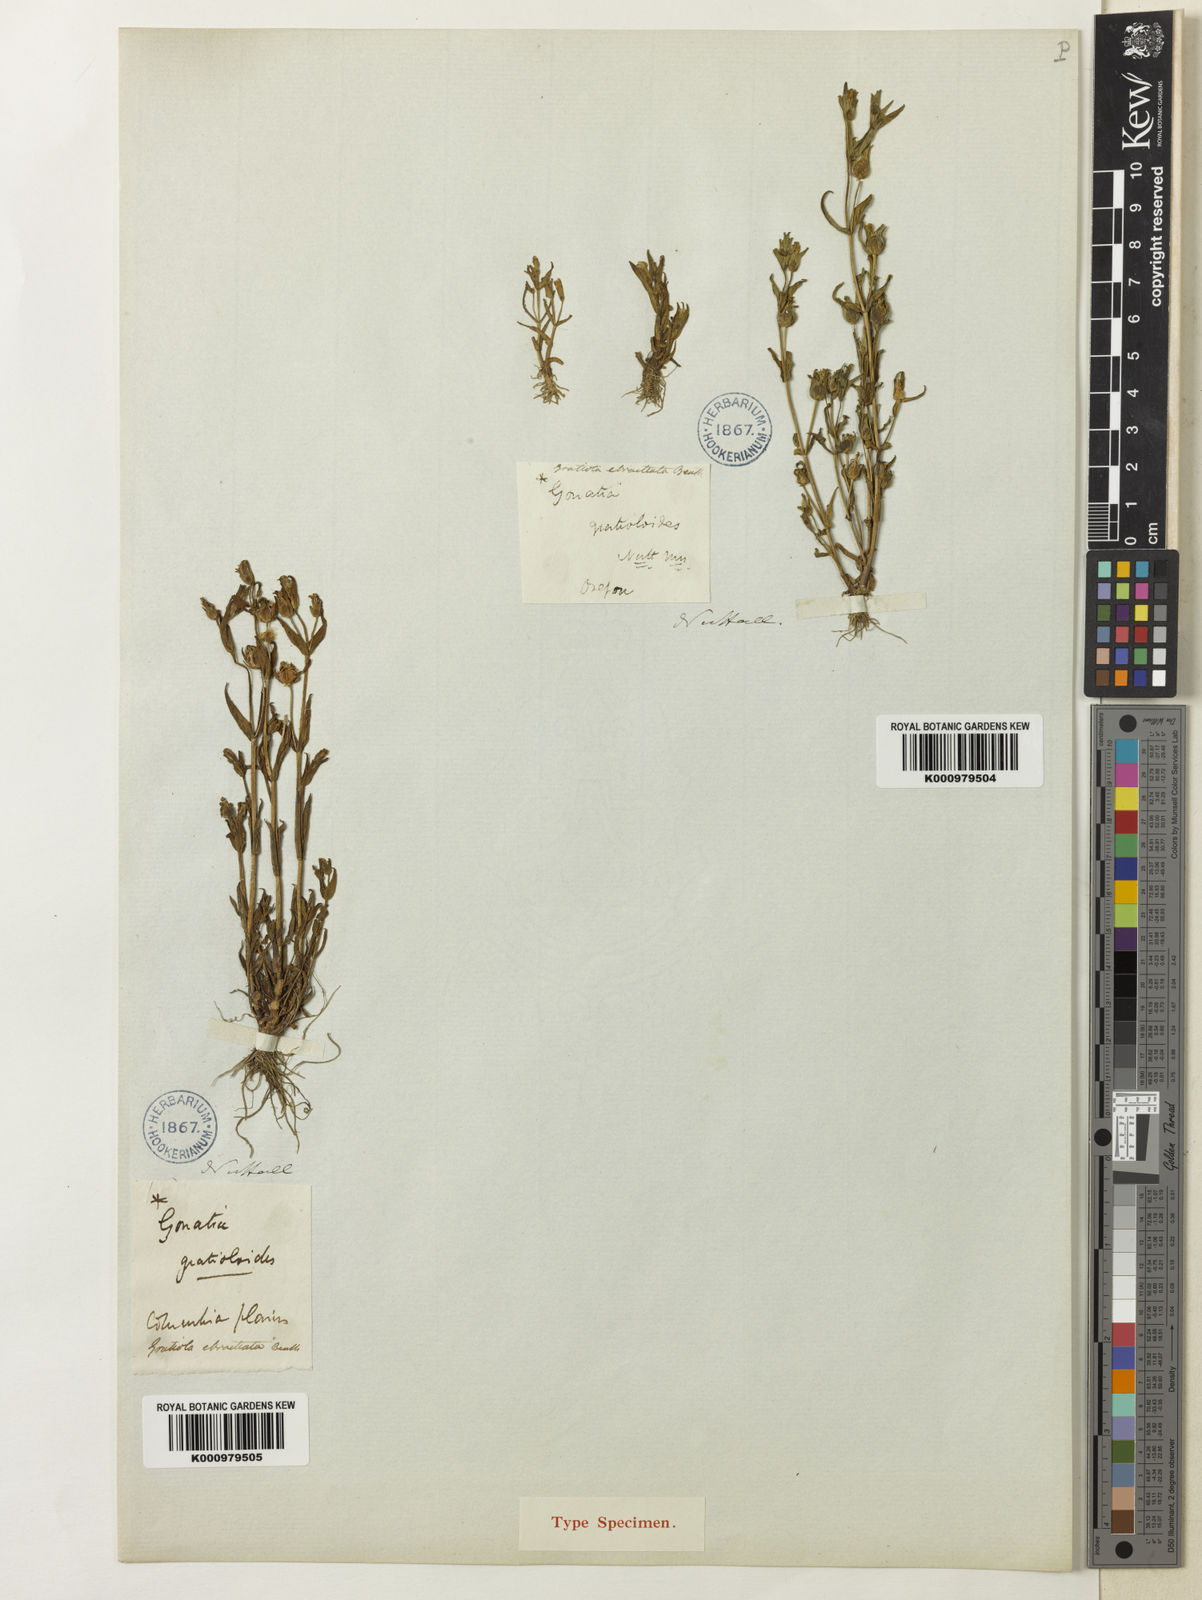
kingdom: Plantae
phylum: Tracheophyta
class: Magnoliopsida
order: Lamiales
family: Plantaginaceae
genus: Gratiola
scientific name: Gratiola
